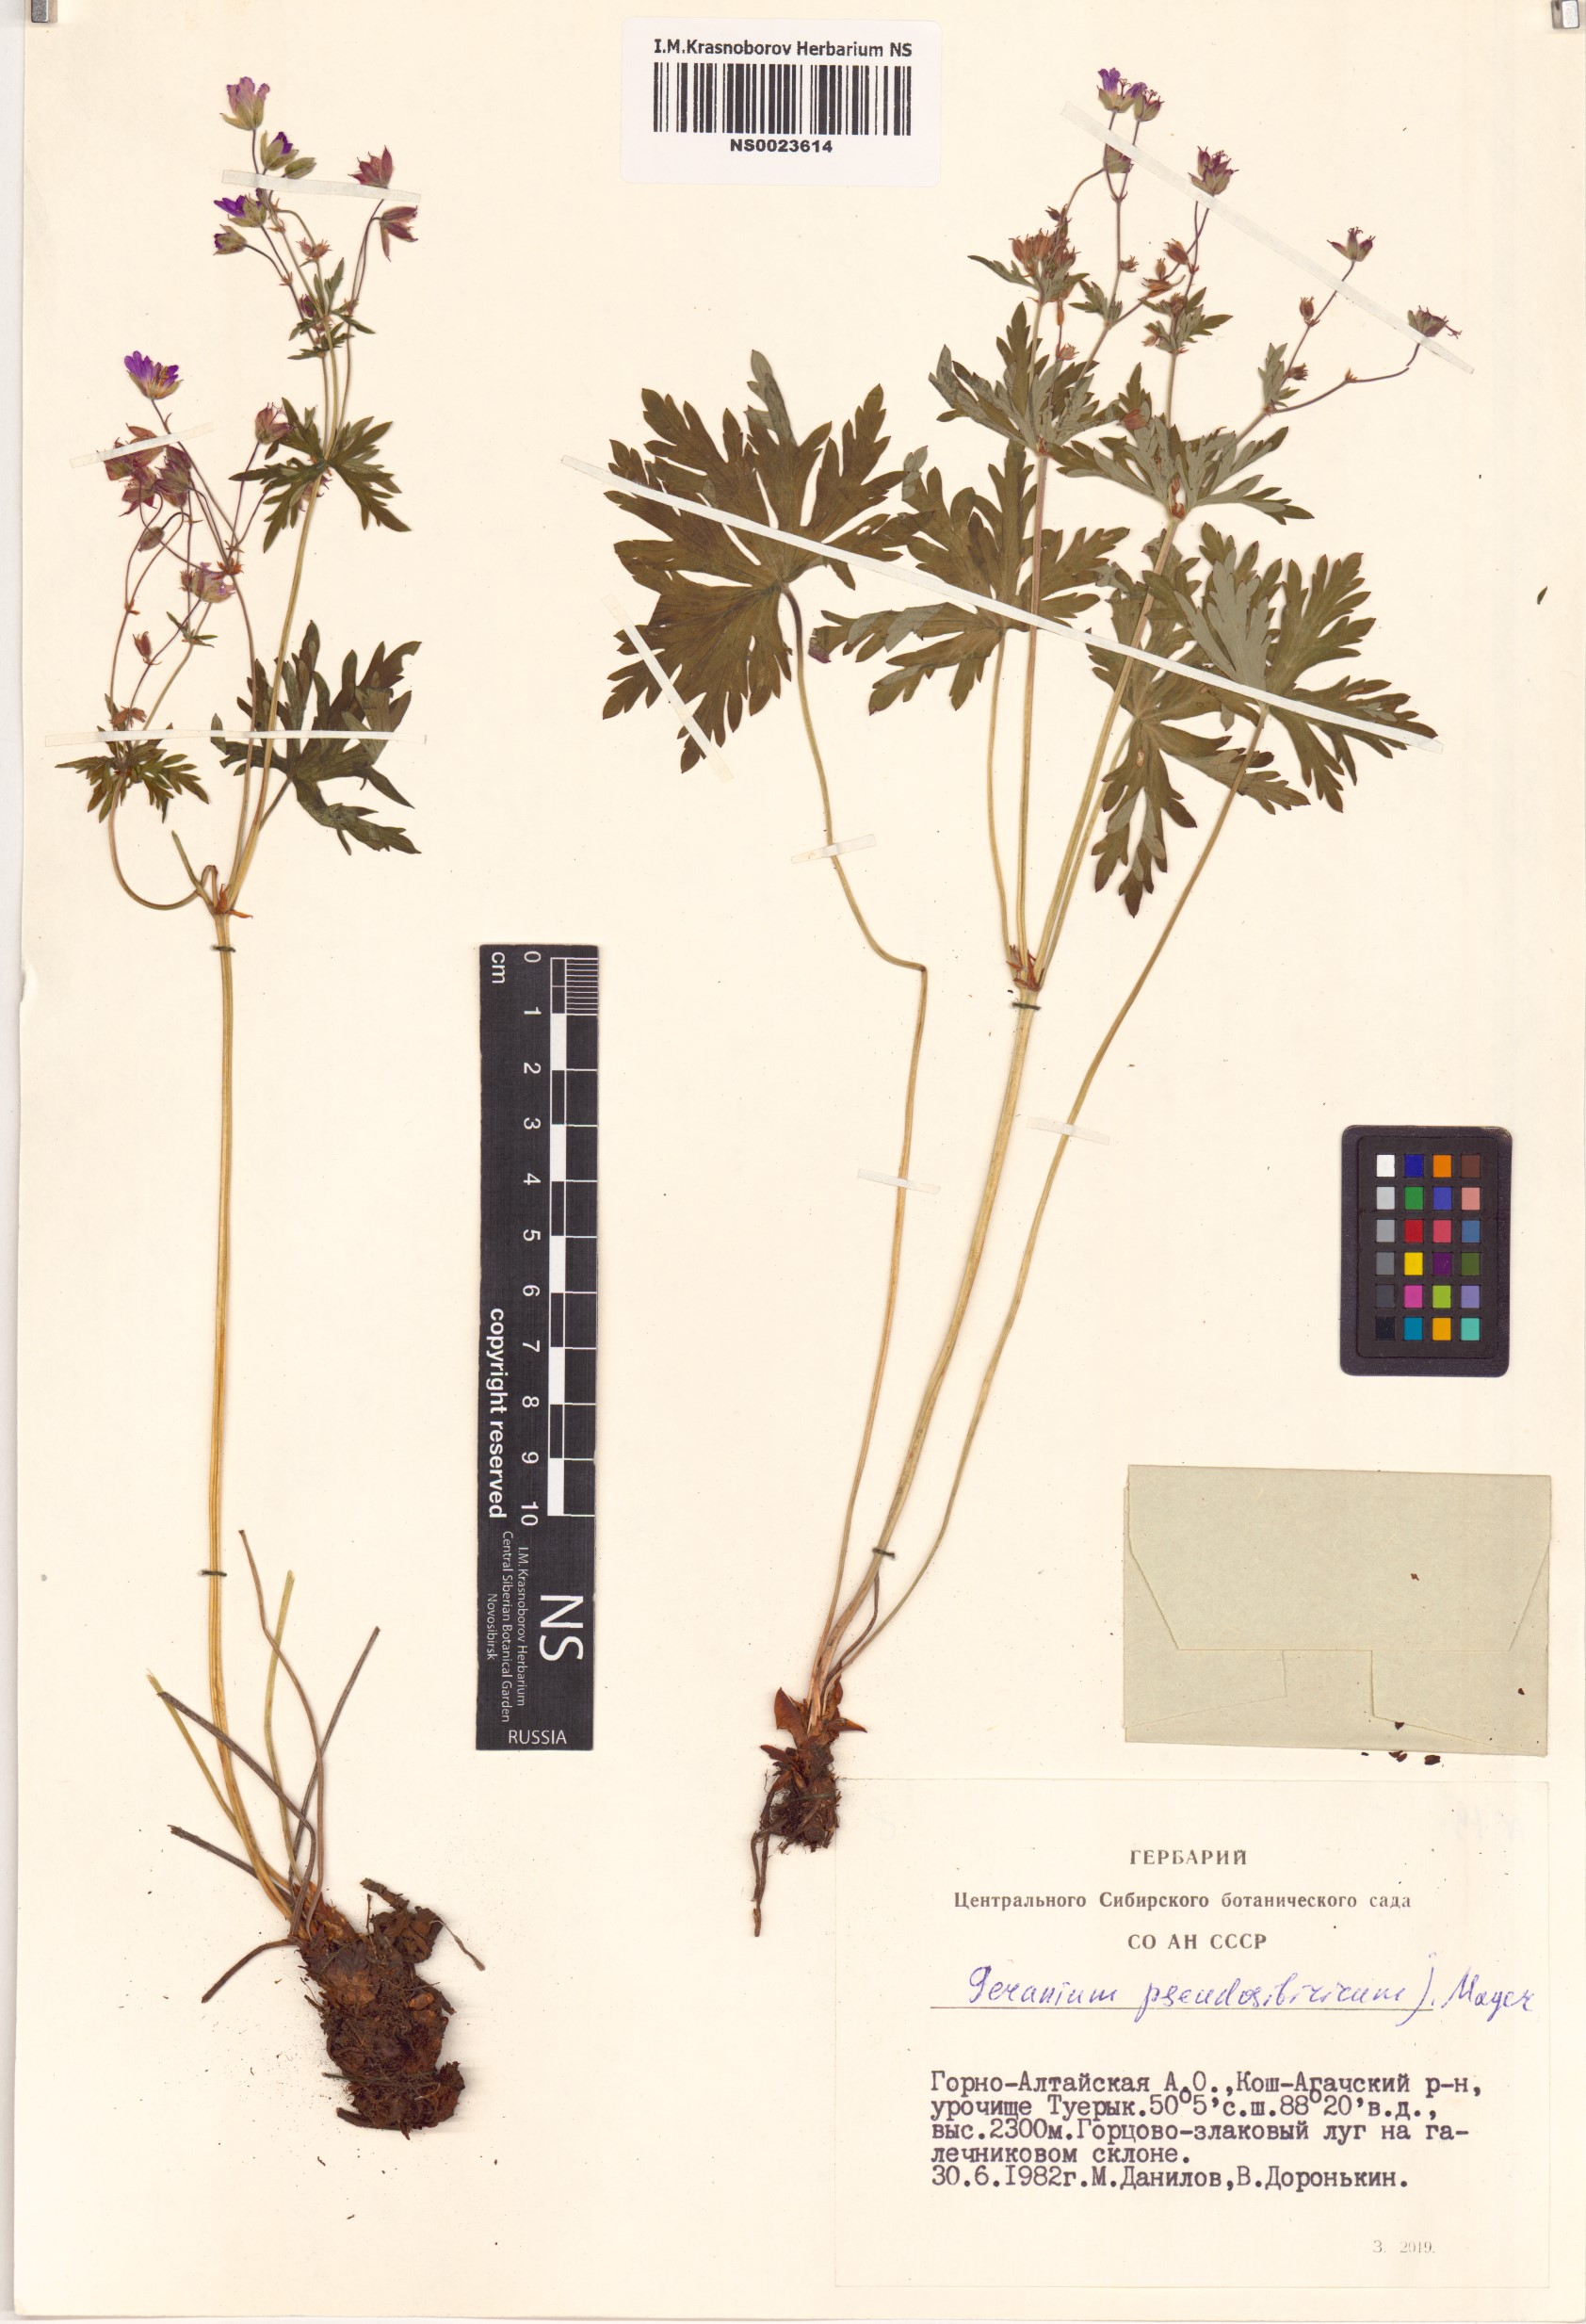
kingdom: Plantae
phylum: Tracheophyta
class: Magnoliopsida
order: Geraniales
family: Geraniaceae
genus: Geranium
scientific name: Geranium pseudosibiricum
